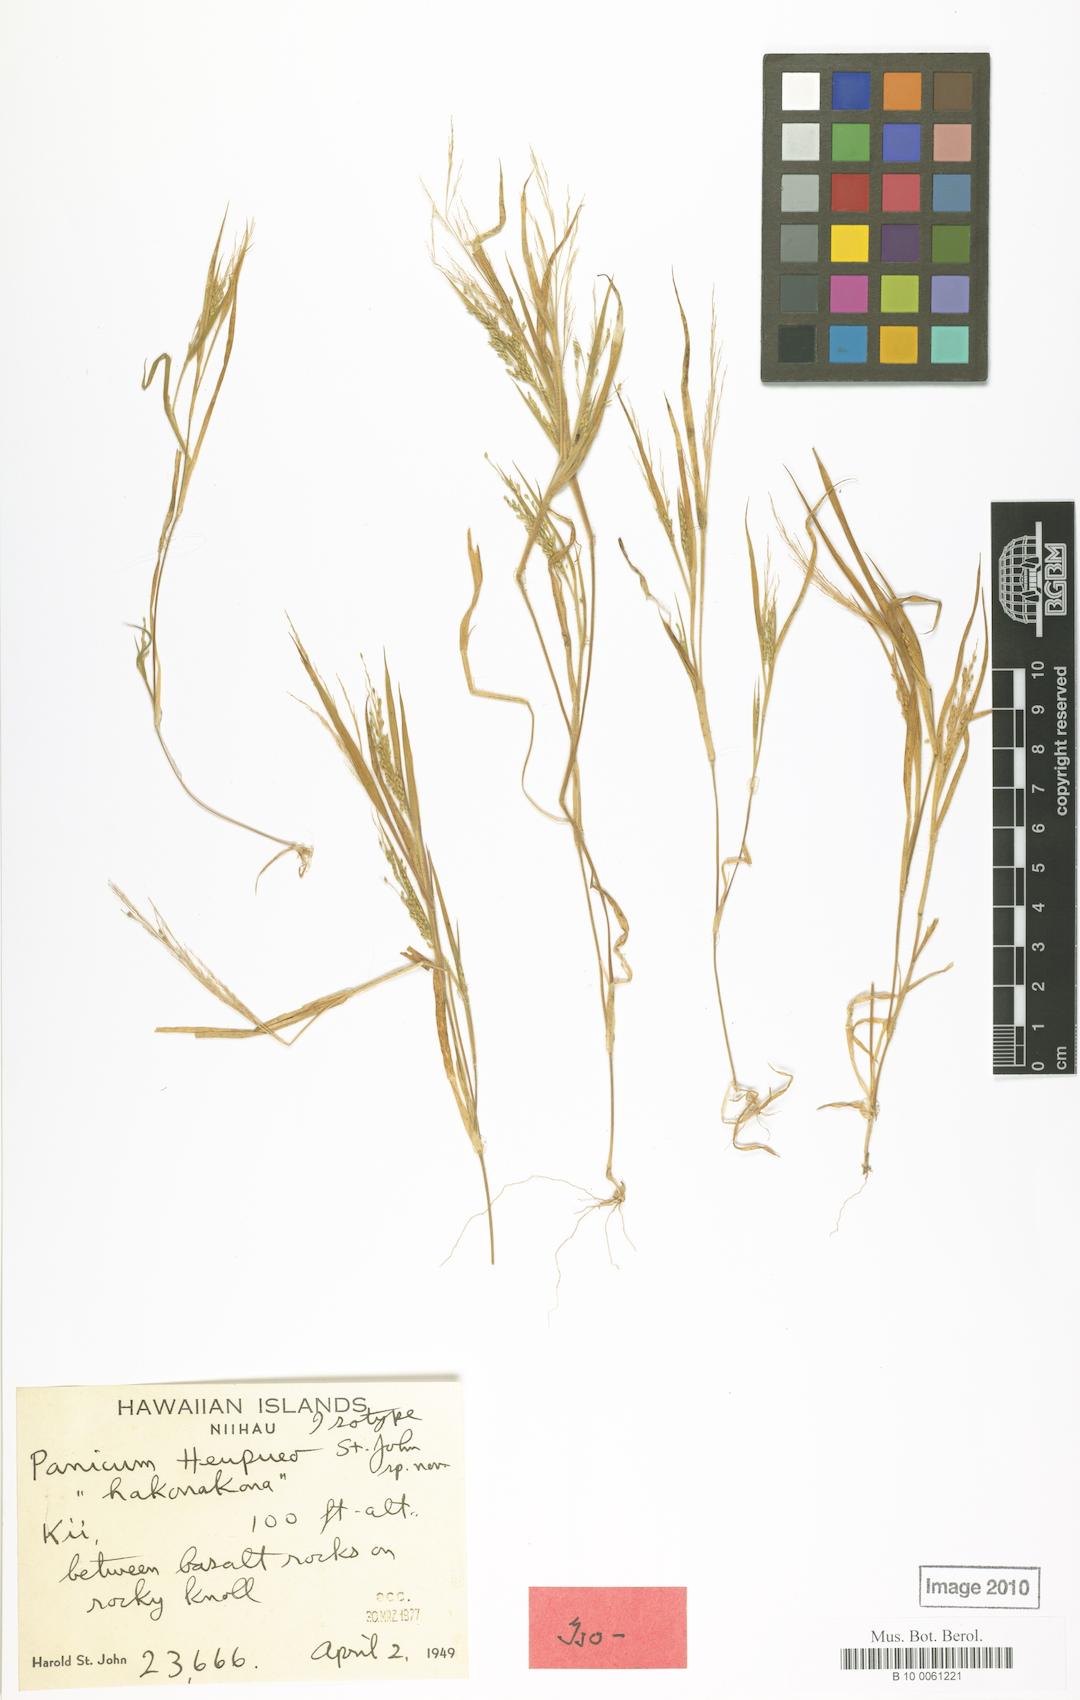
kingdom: Plantae
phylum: Tracheophyta
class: Liliopsida
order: Poales
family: Poaceae
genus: Panicum
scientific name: Panicum xerophilum
